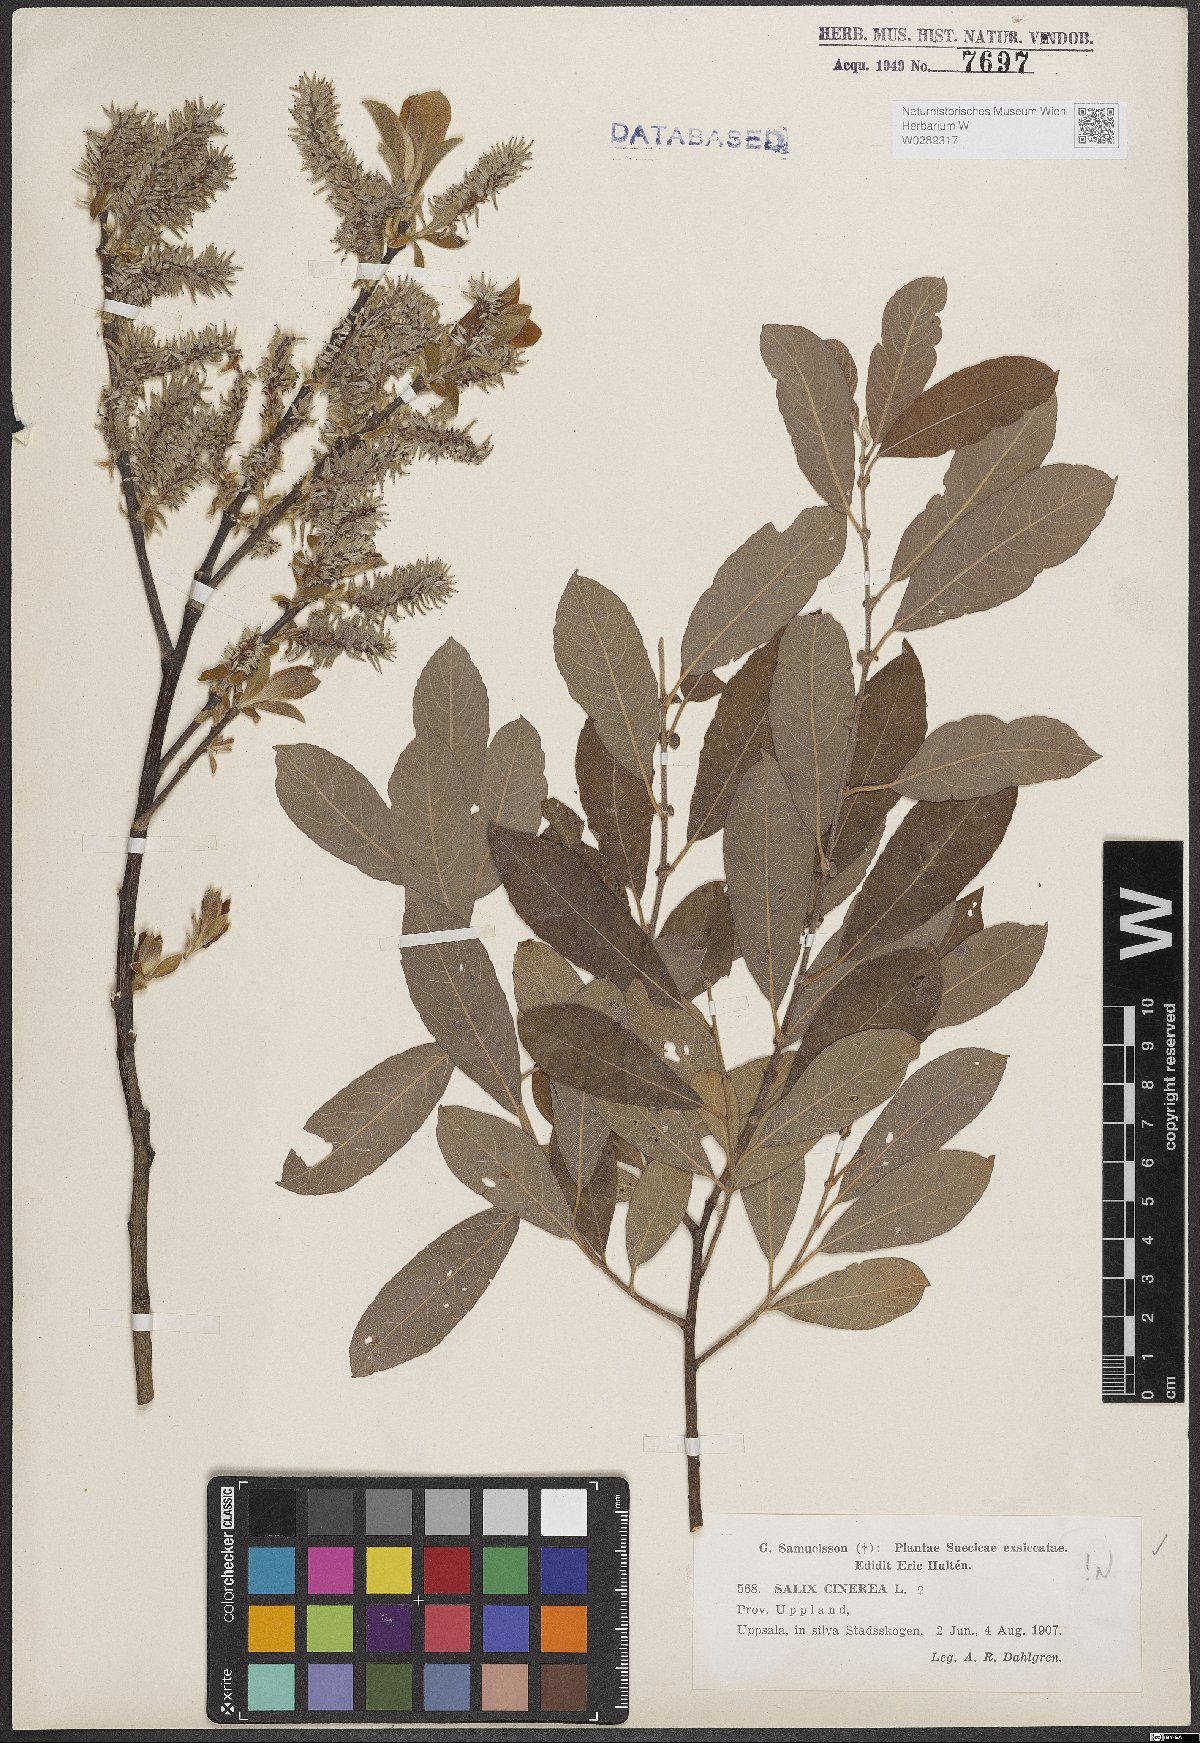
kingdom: Plantae
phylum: Tracheophyta
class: Magnoliopsida
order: Malpighiales
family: Salicaceae
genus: Salix
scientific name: Salix cinerea
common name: Common sallow
